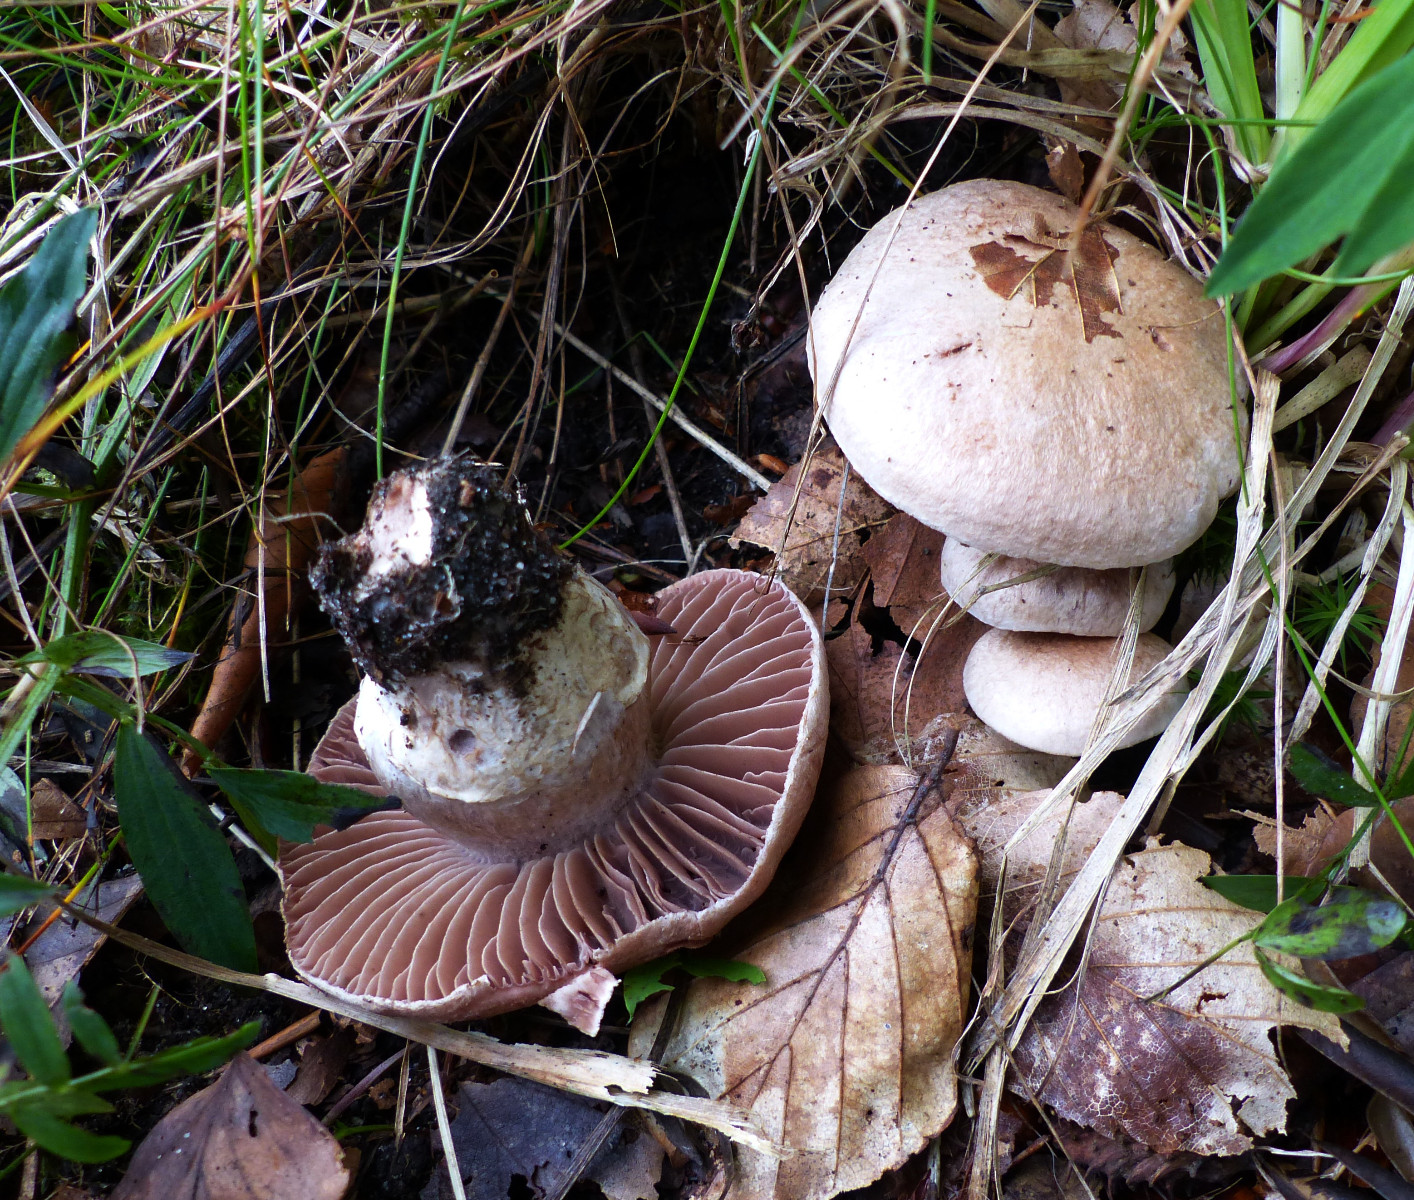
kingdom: Fungi
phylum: Basidiomycota
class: Agaricomycetes
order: Agaricales
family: Cortinariaceae
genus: Cortinarius
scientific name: Cortinarius torvus
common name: champignonagtig slørhat
